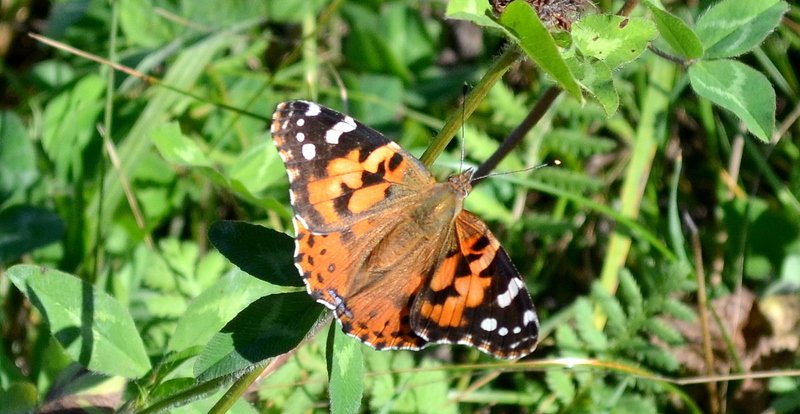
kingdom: Animalia
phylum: Arthropoda
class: Insecta
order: Lepidoptera
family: Nymphalidae
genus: Vanessa
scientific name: Vanessa cardui
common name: Painted Lady
